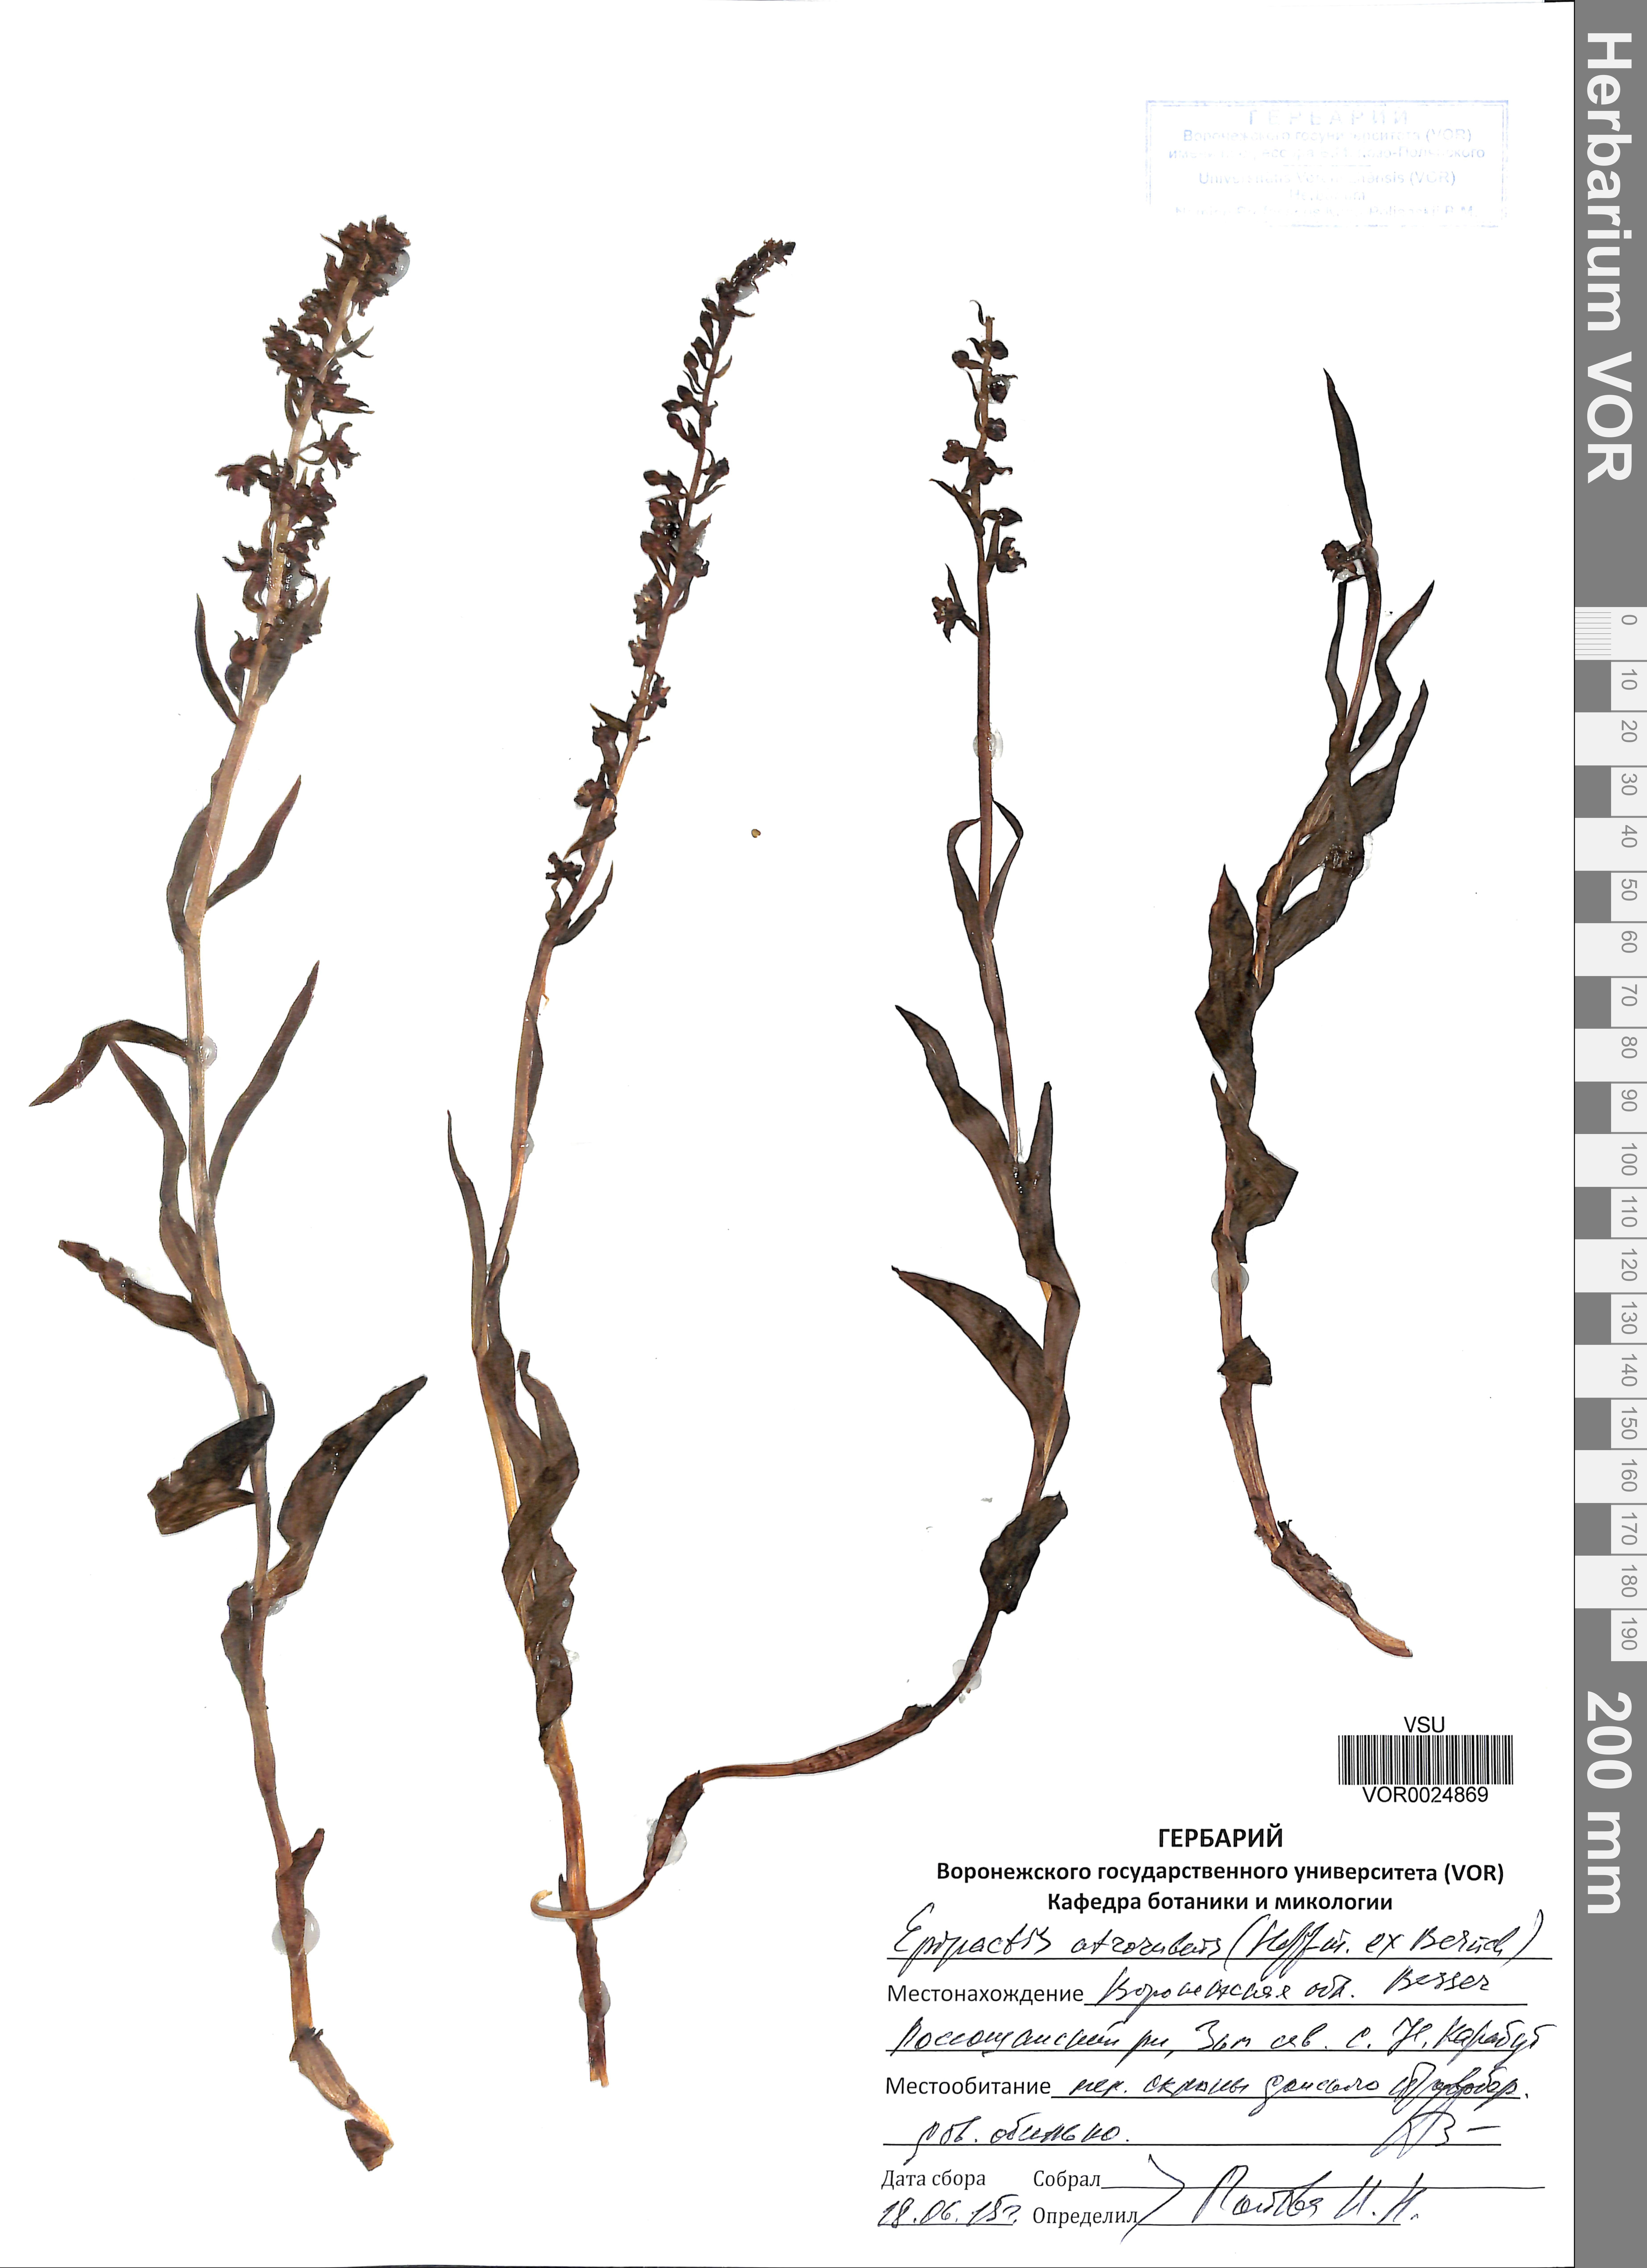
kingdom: Plantae
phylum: Tracheophyta
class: Liliopsida
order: Asparagales
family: Orchidaceae
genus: Epipactis
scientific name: Epipactis atrorubens
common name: Dark-red helleborine
